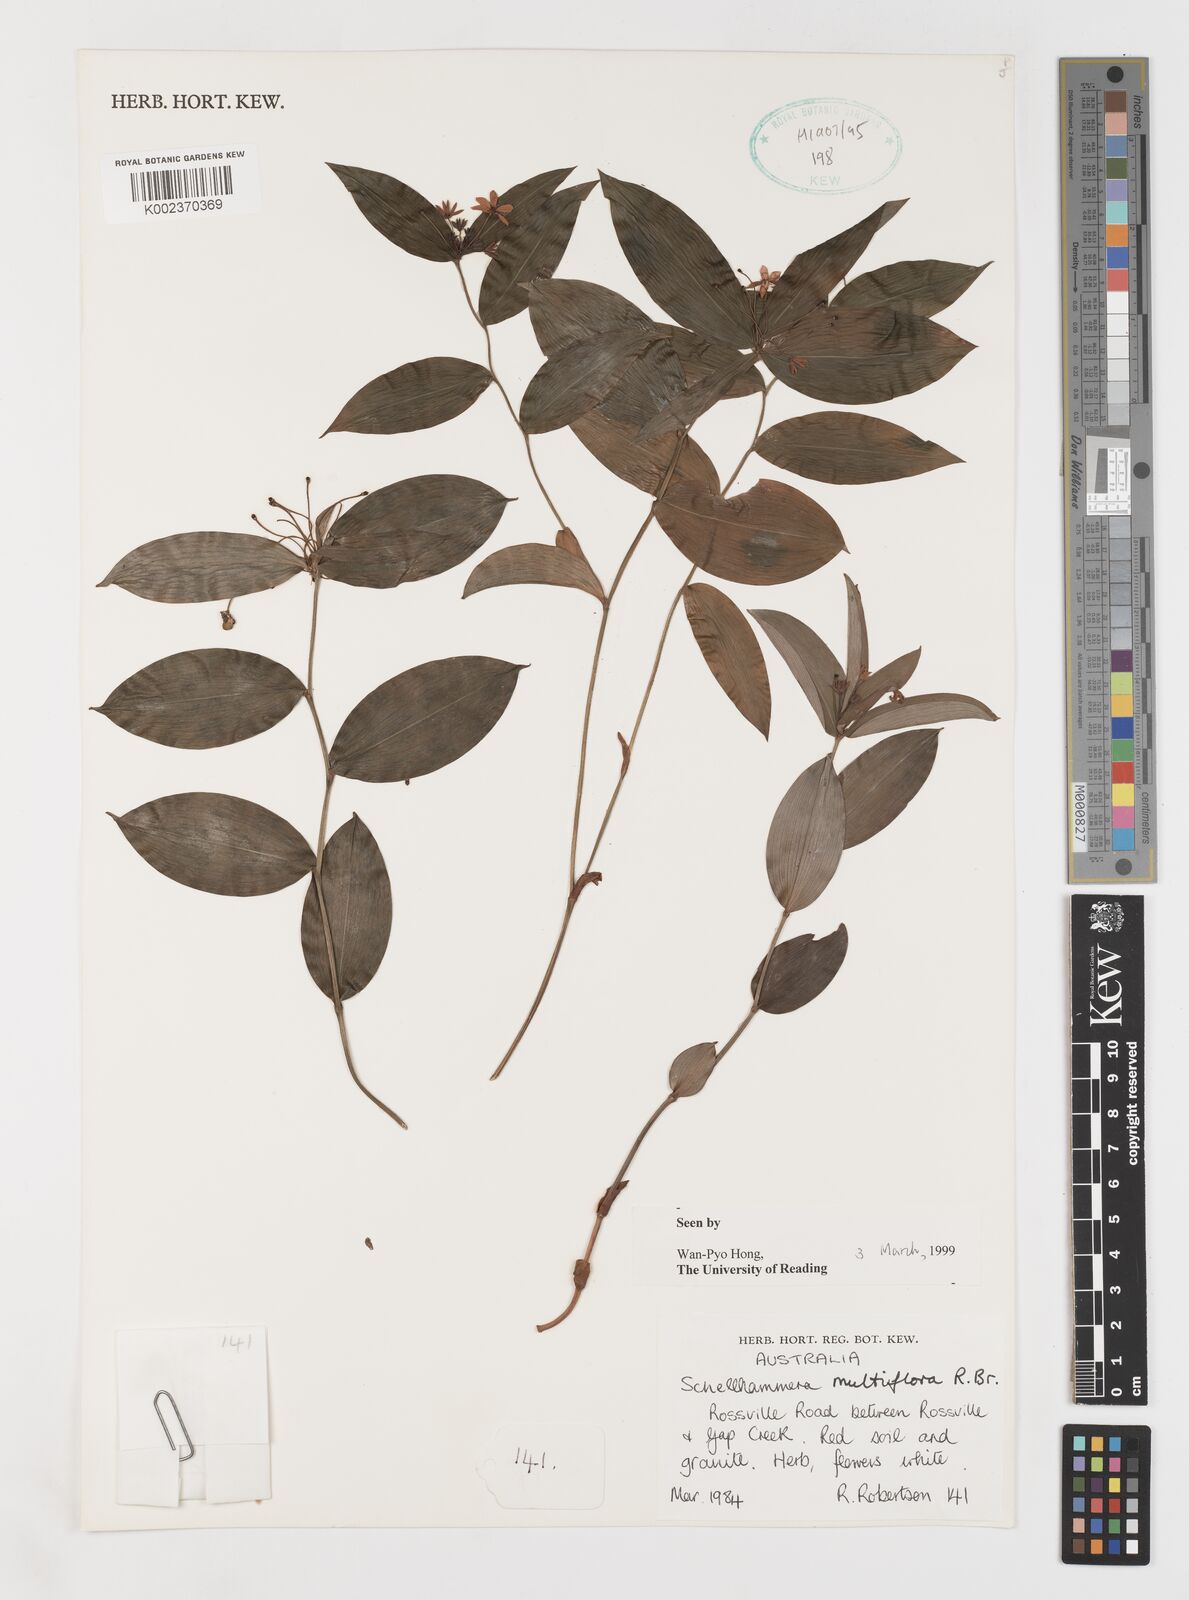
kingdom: Plantae
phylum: Tracheophyta
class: Liliopsida
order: Liliales
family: Colchicaceae
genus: Schelhammera
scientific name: Schelhammera multiflora
